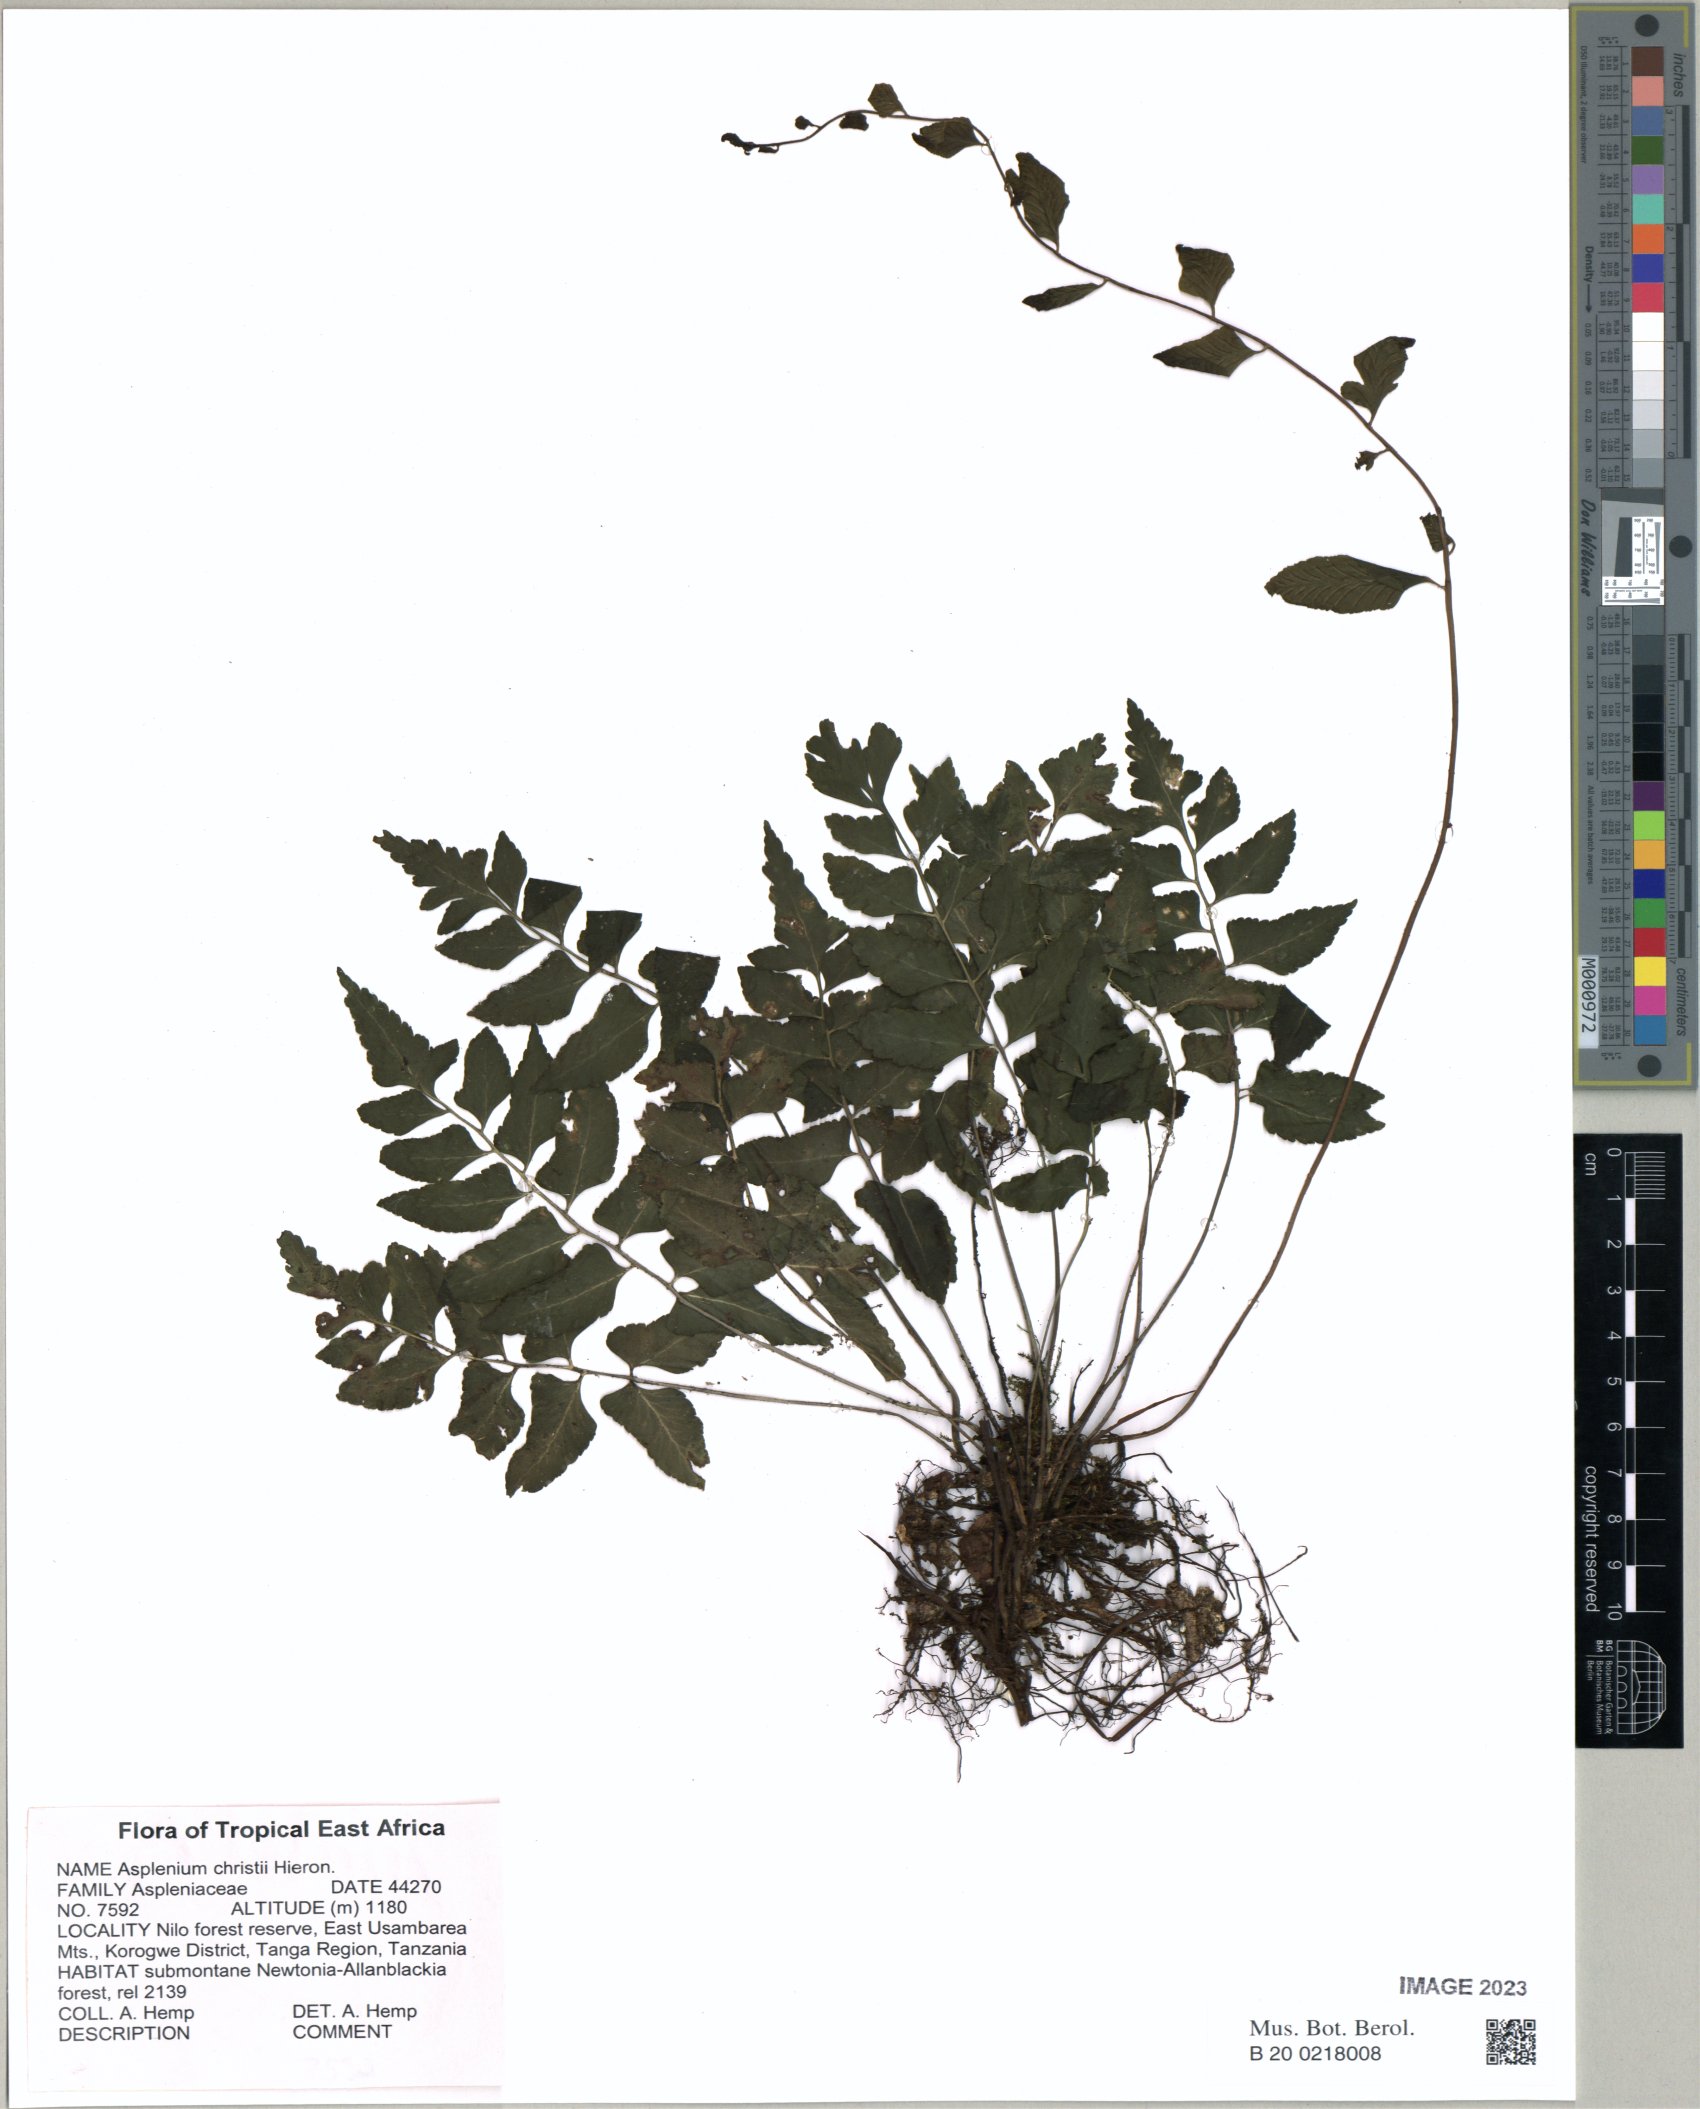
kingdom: Plantae
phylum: Tracheophyta
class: Polypodiopsida
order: Polypodiales
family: Aspleniaceae
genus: Asplenium
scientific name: Asplenium christii
